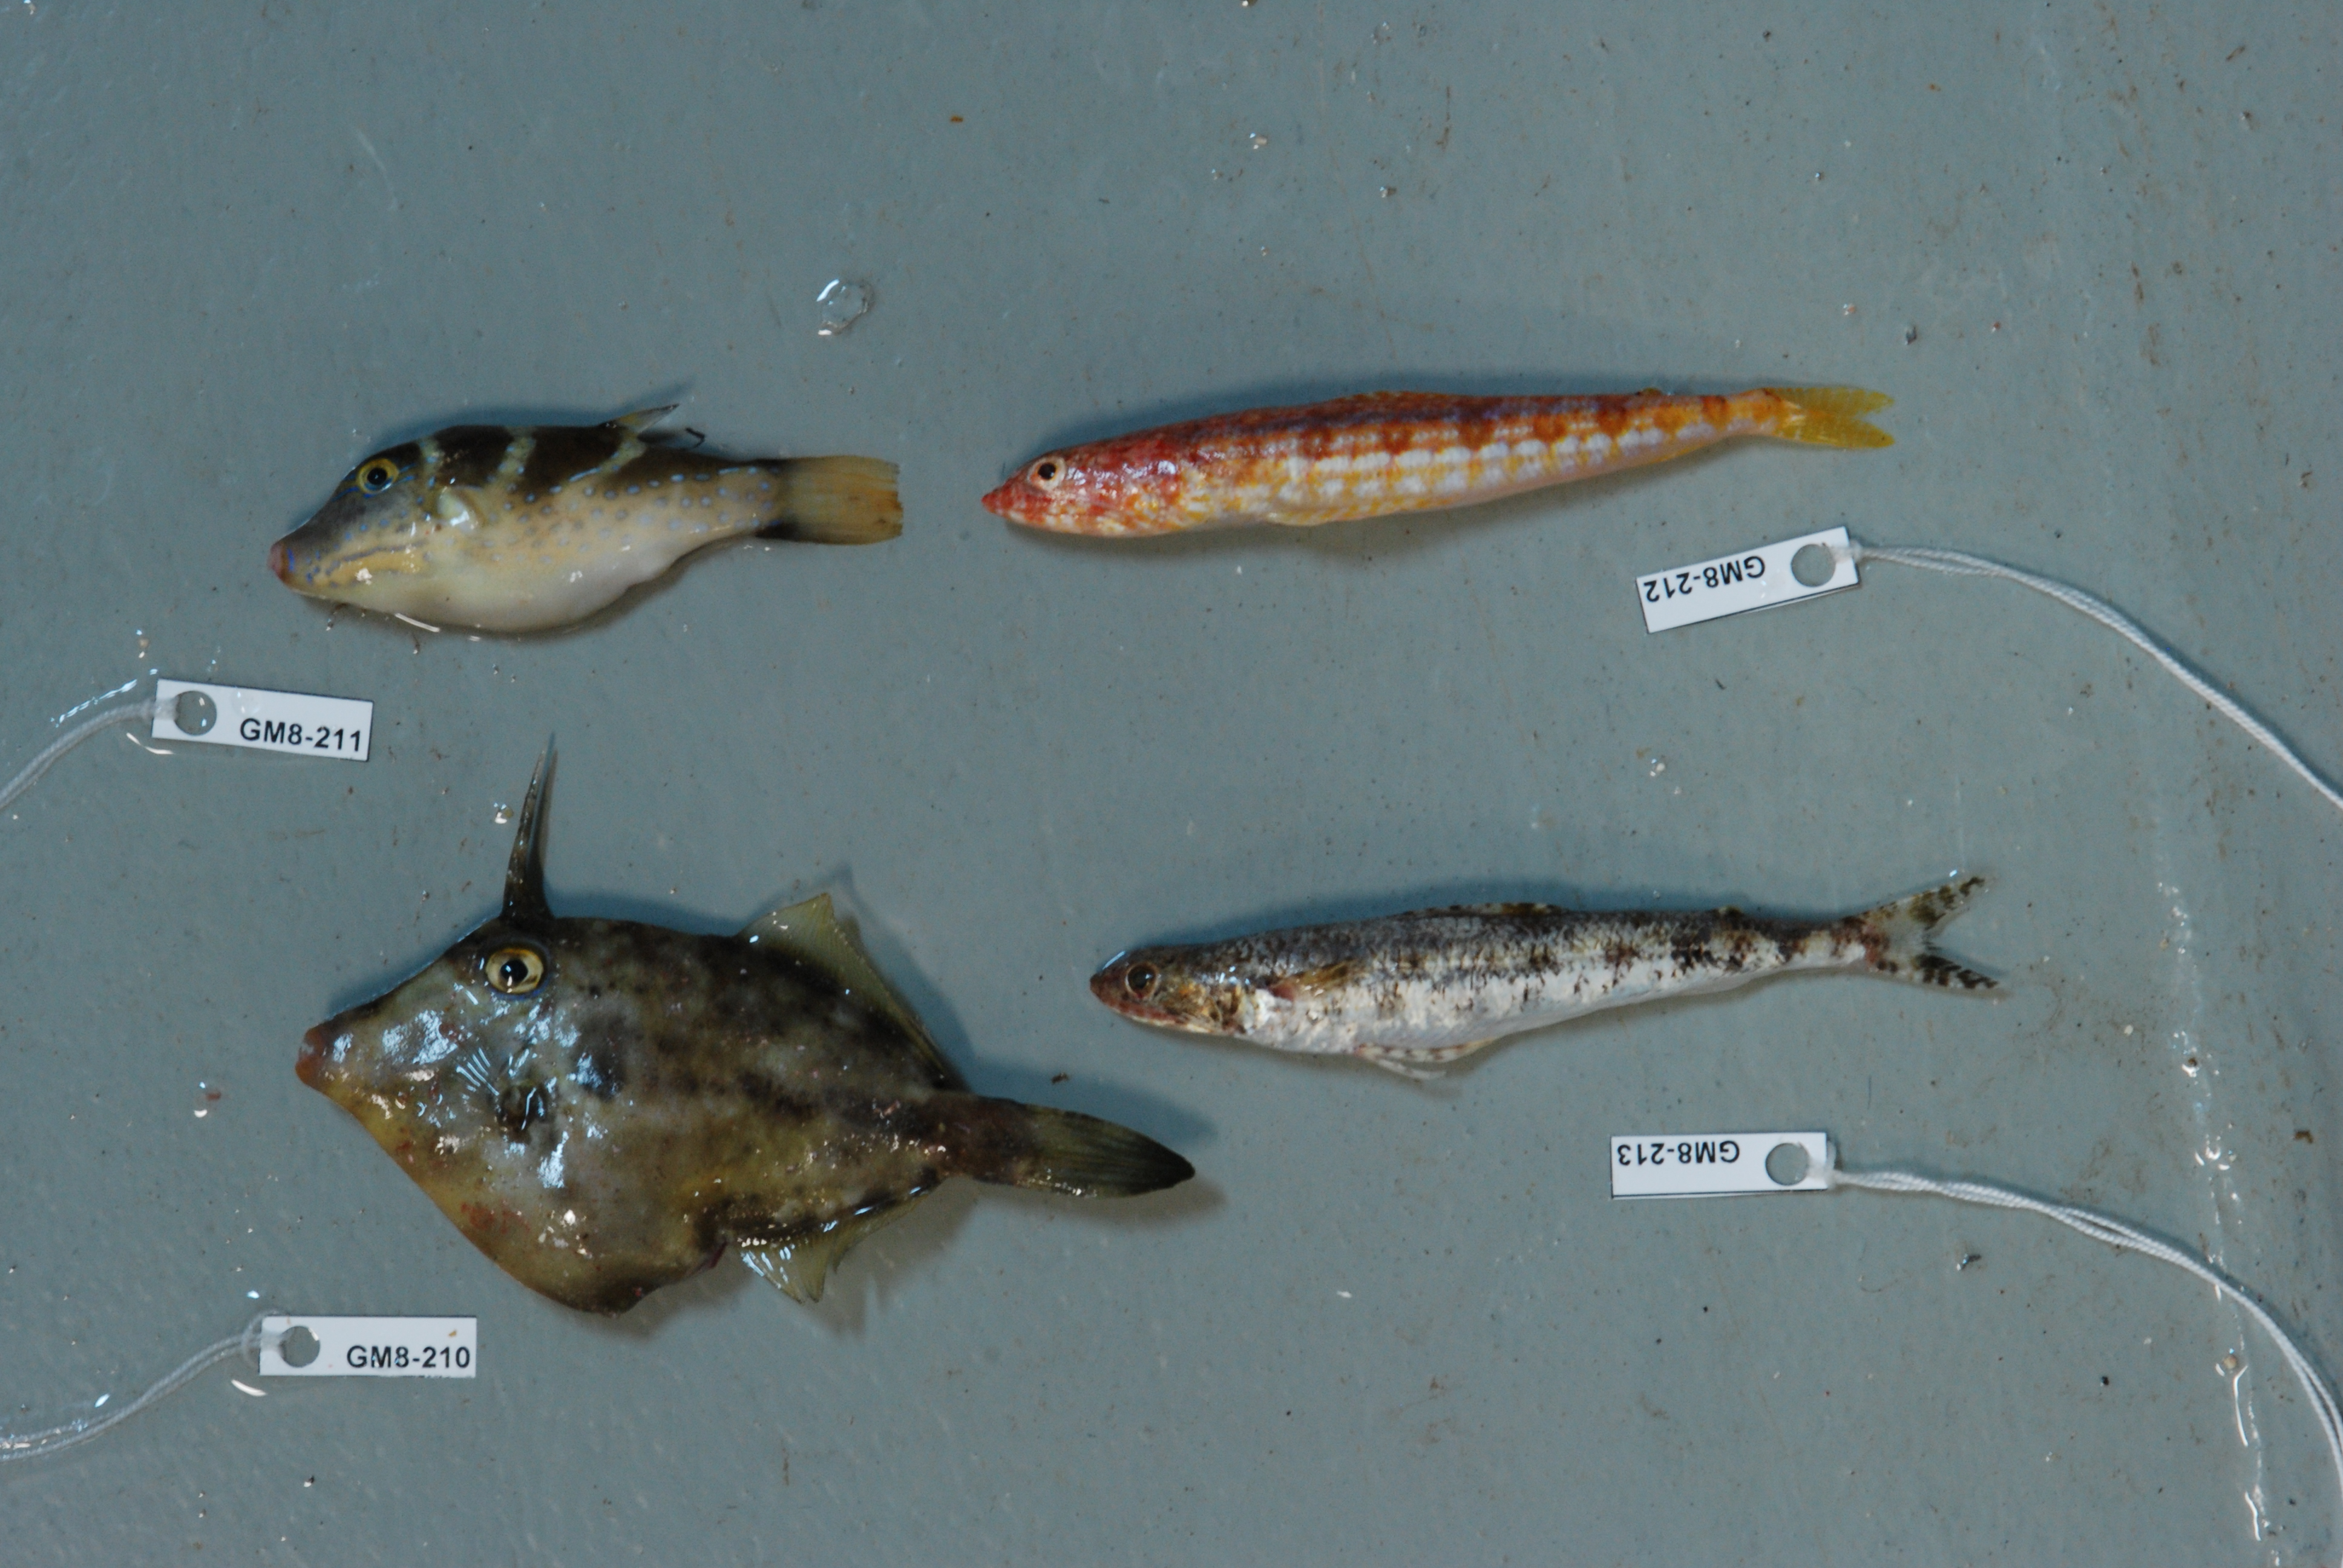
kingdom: Animalia
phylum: Chordata
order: Tetraodontiformes
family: Monacanthidae
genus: Cantherhines
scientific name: Cantherhines fronticinctus
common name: Spectacled filefish
